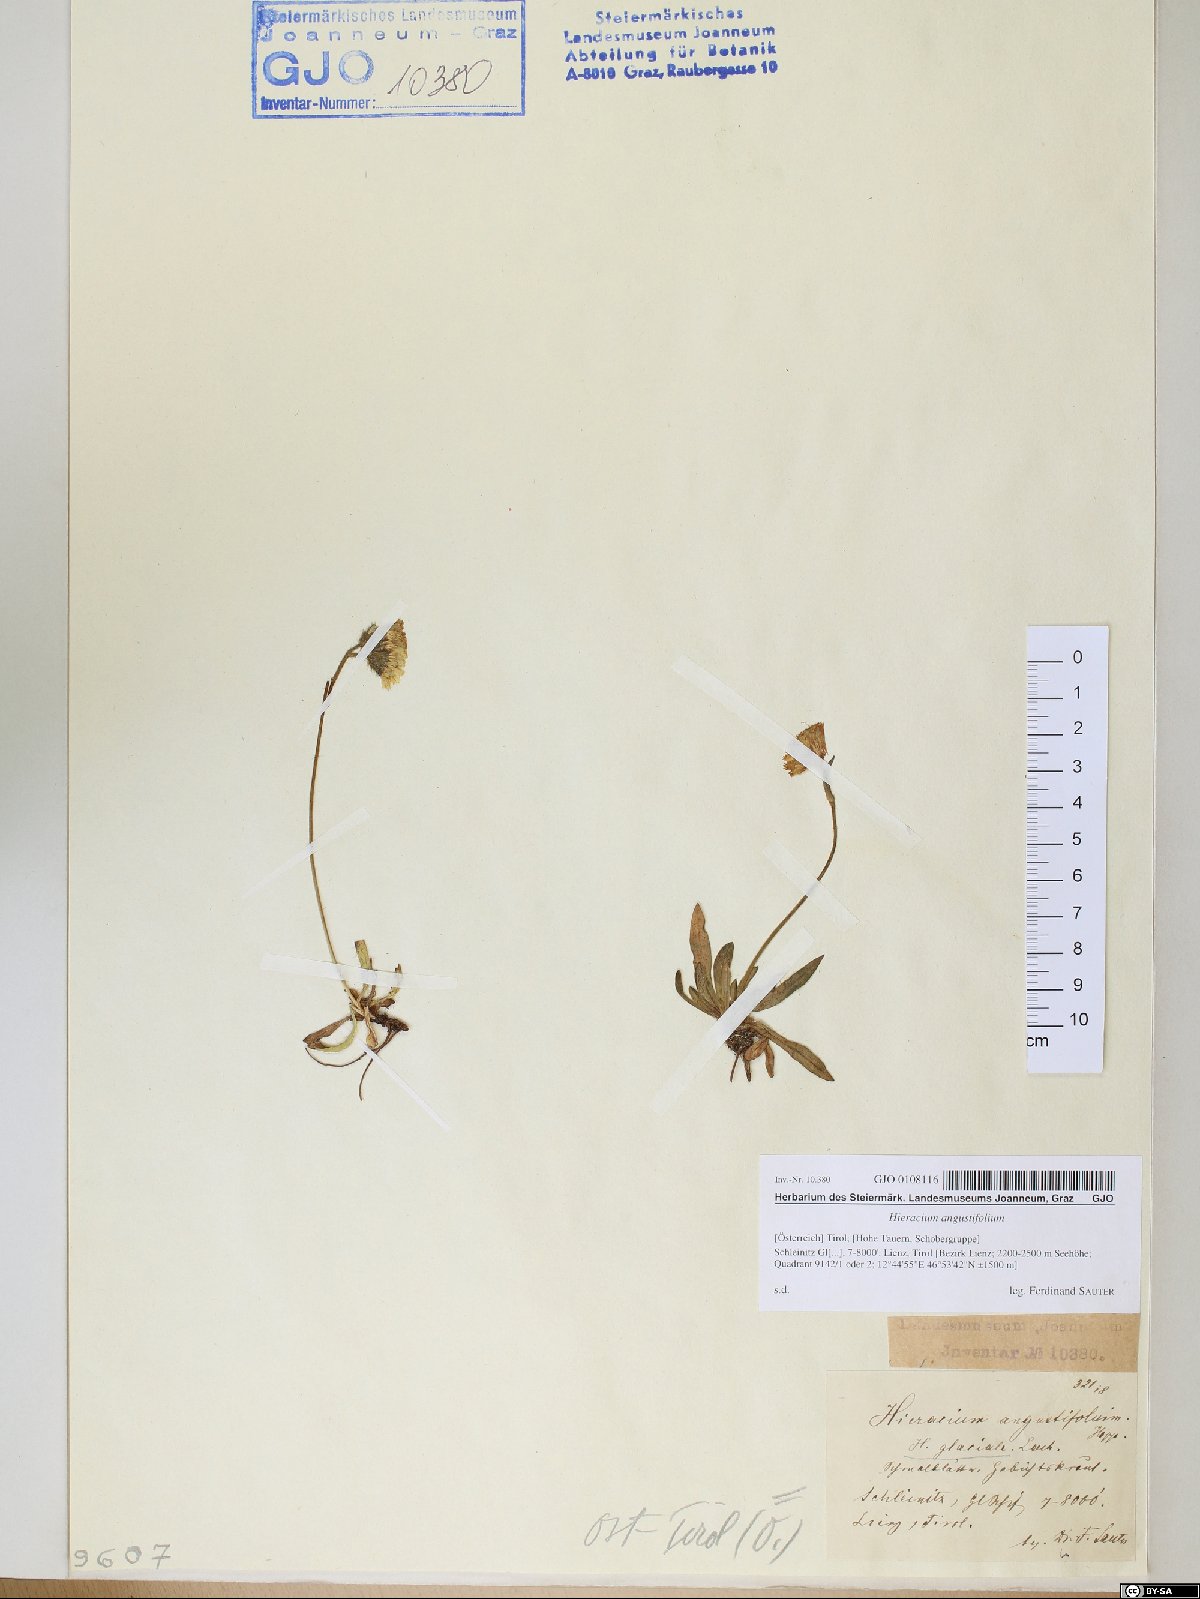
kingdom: Plantae
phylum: Tracheophyta
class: Magnoliopsida
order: Asterales
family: Asteraceae
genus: Pilosella
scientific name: Pilosella glacialis
